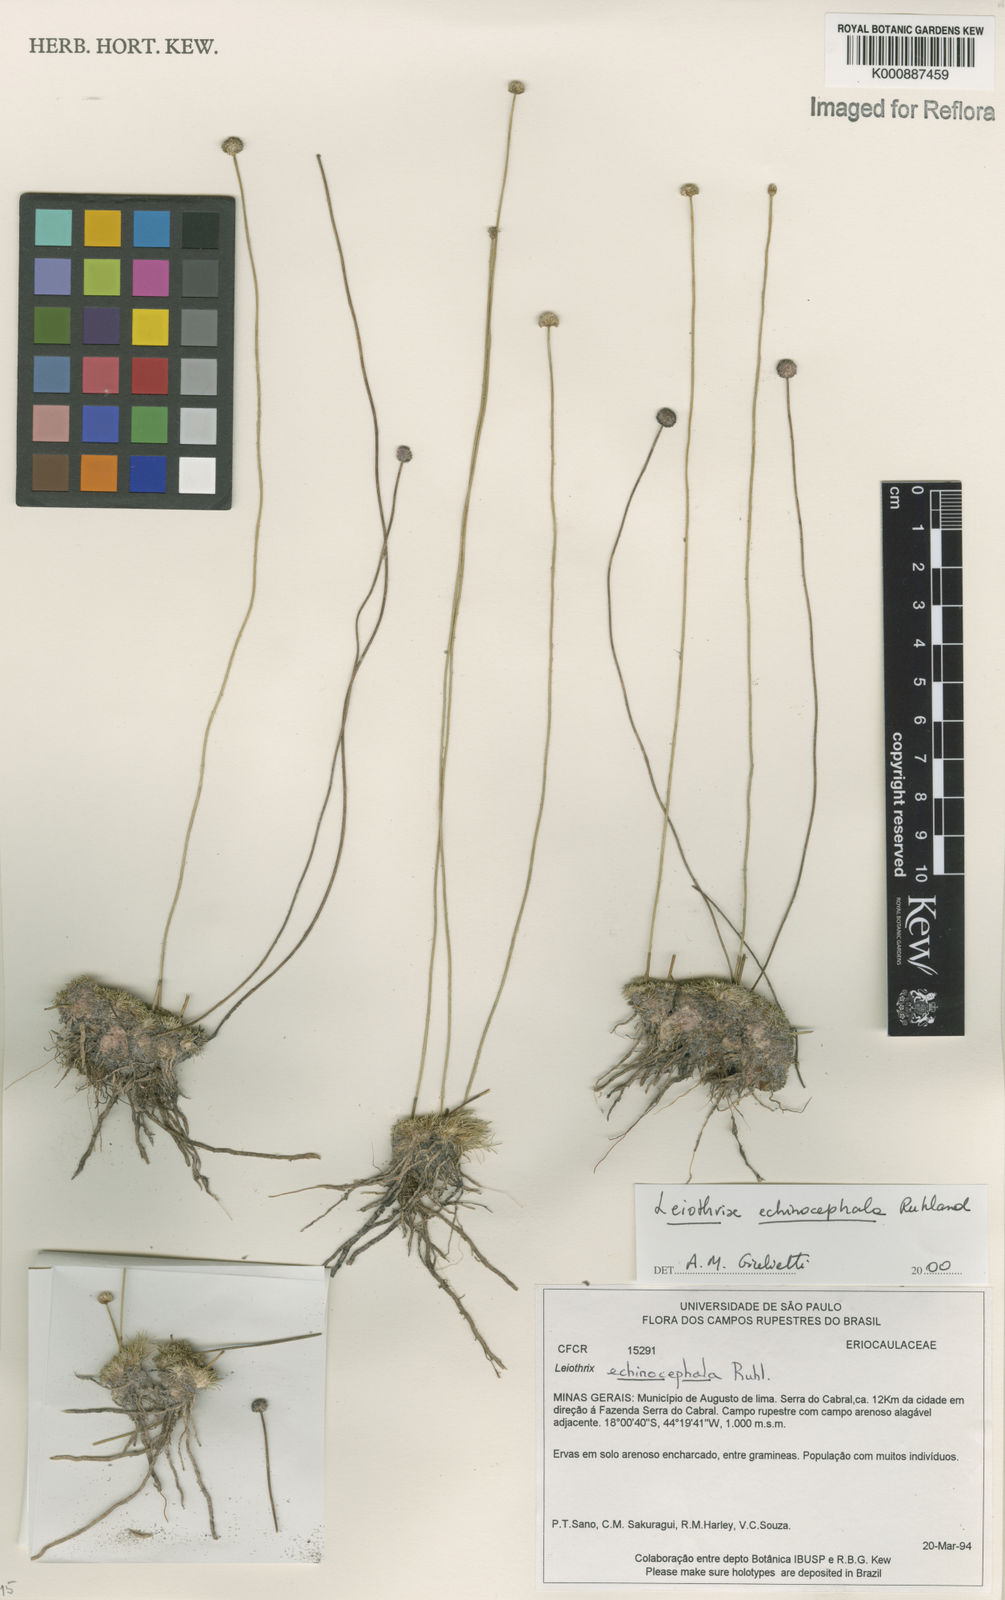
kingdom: Plantae
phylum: Tracheophyta
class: Liliopsida
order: Poales
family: Eriocaulaceae
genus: Leiothrix
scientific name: Leiothrix echinocephala
